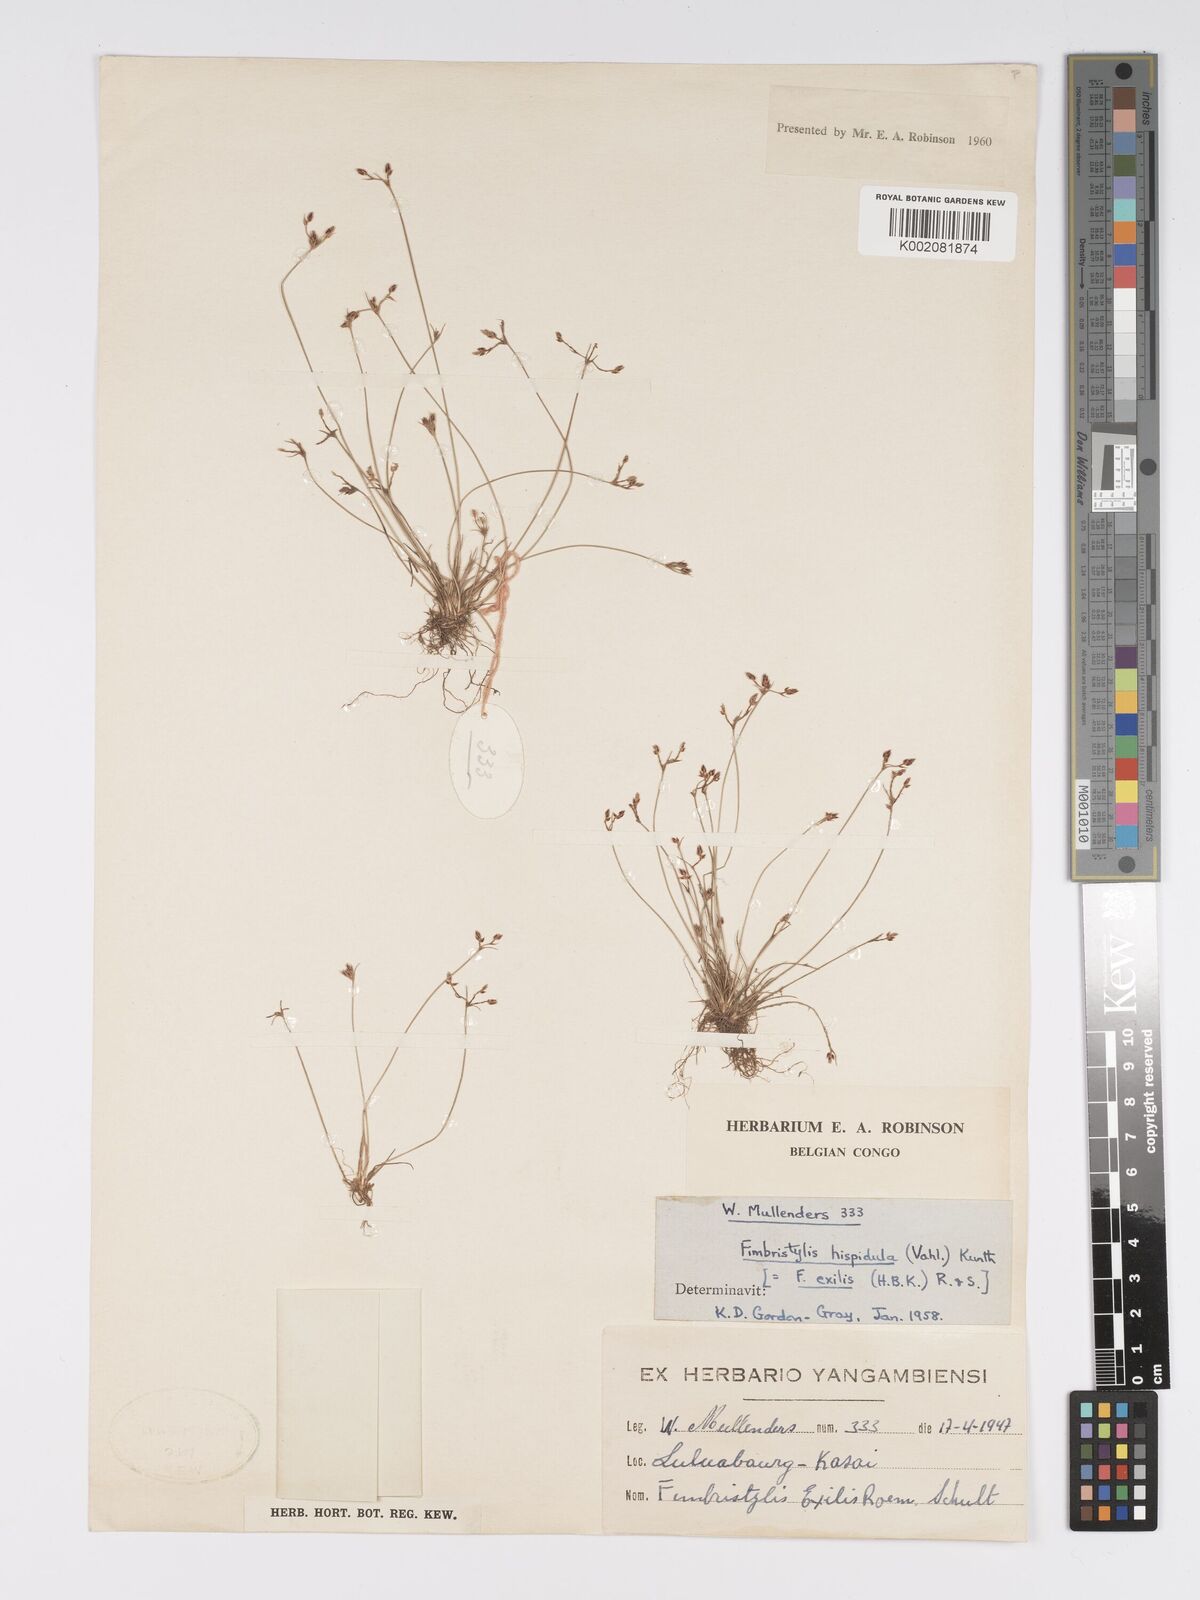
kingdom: Plantae
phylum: Tracheophyta
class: Liliopsida
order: Poales
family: Cyperaceae
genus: Bulbostylis
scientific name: Bulbostylis hispidula
